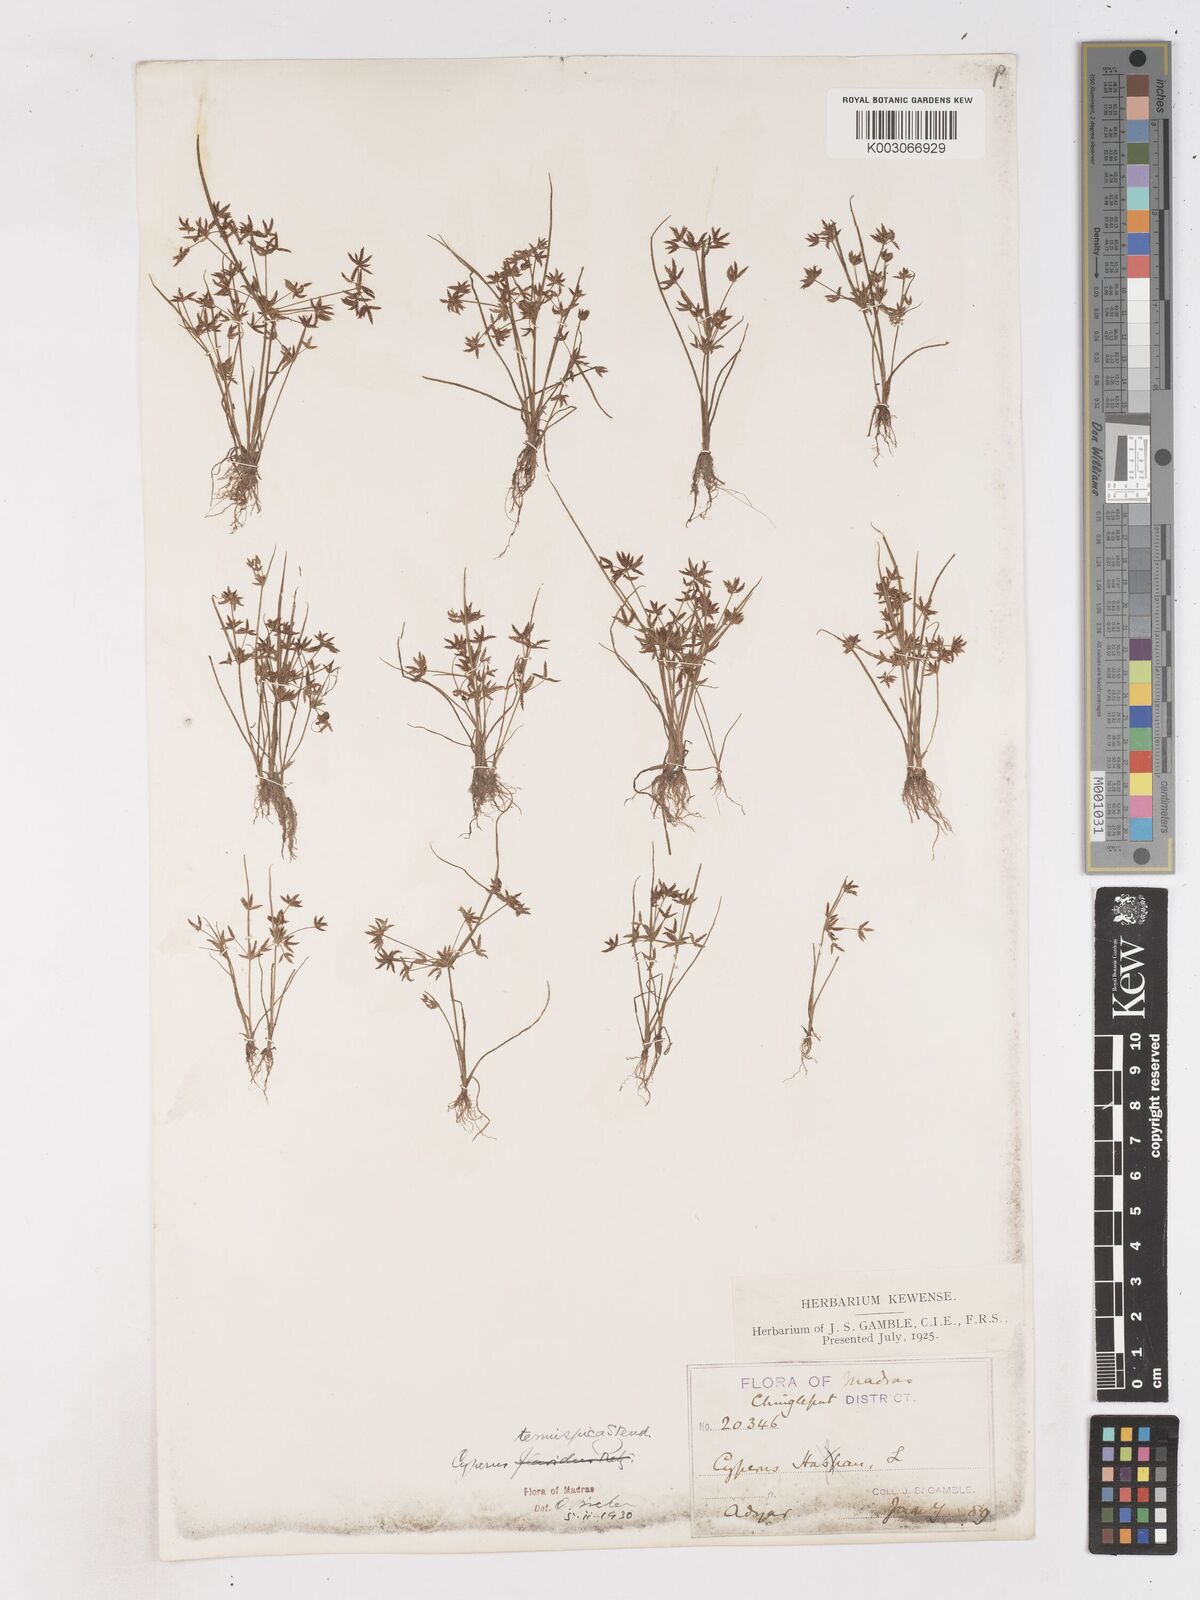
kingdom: Plantae
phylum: Tracheophyta
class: Liliopsida
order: Poales
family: Cyperaceae
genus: Cyperus
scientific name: Cyperus tenuispica
